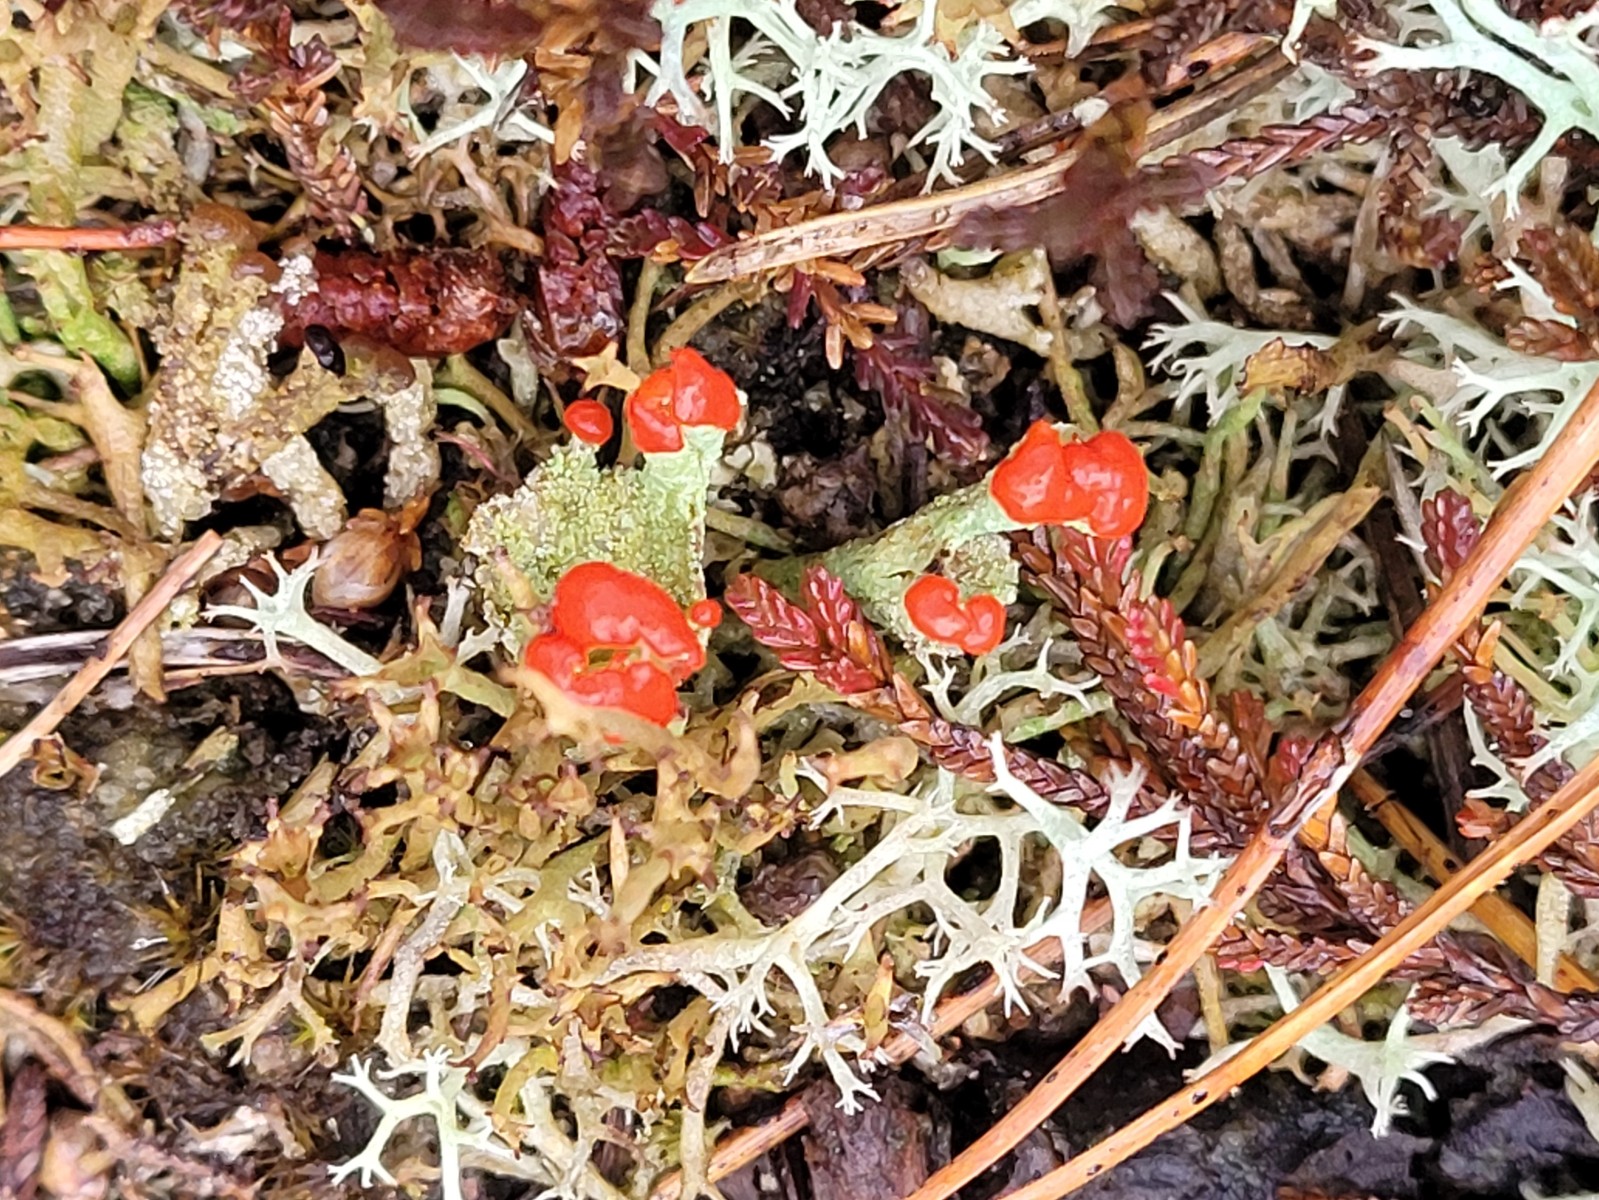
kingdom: Fungi
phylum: Ascomycota
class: Lecanoromycetes
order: Lecanorales
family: Cladoniaceae
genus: Cladonia
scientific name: Cladonia diversa
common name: rød bægerlav
